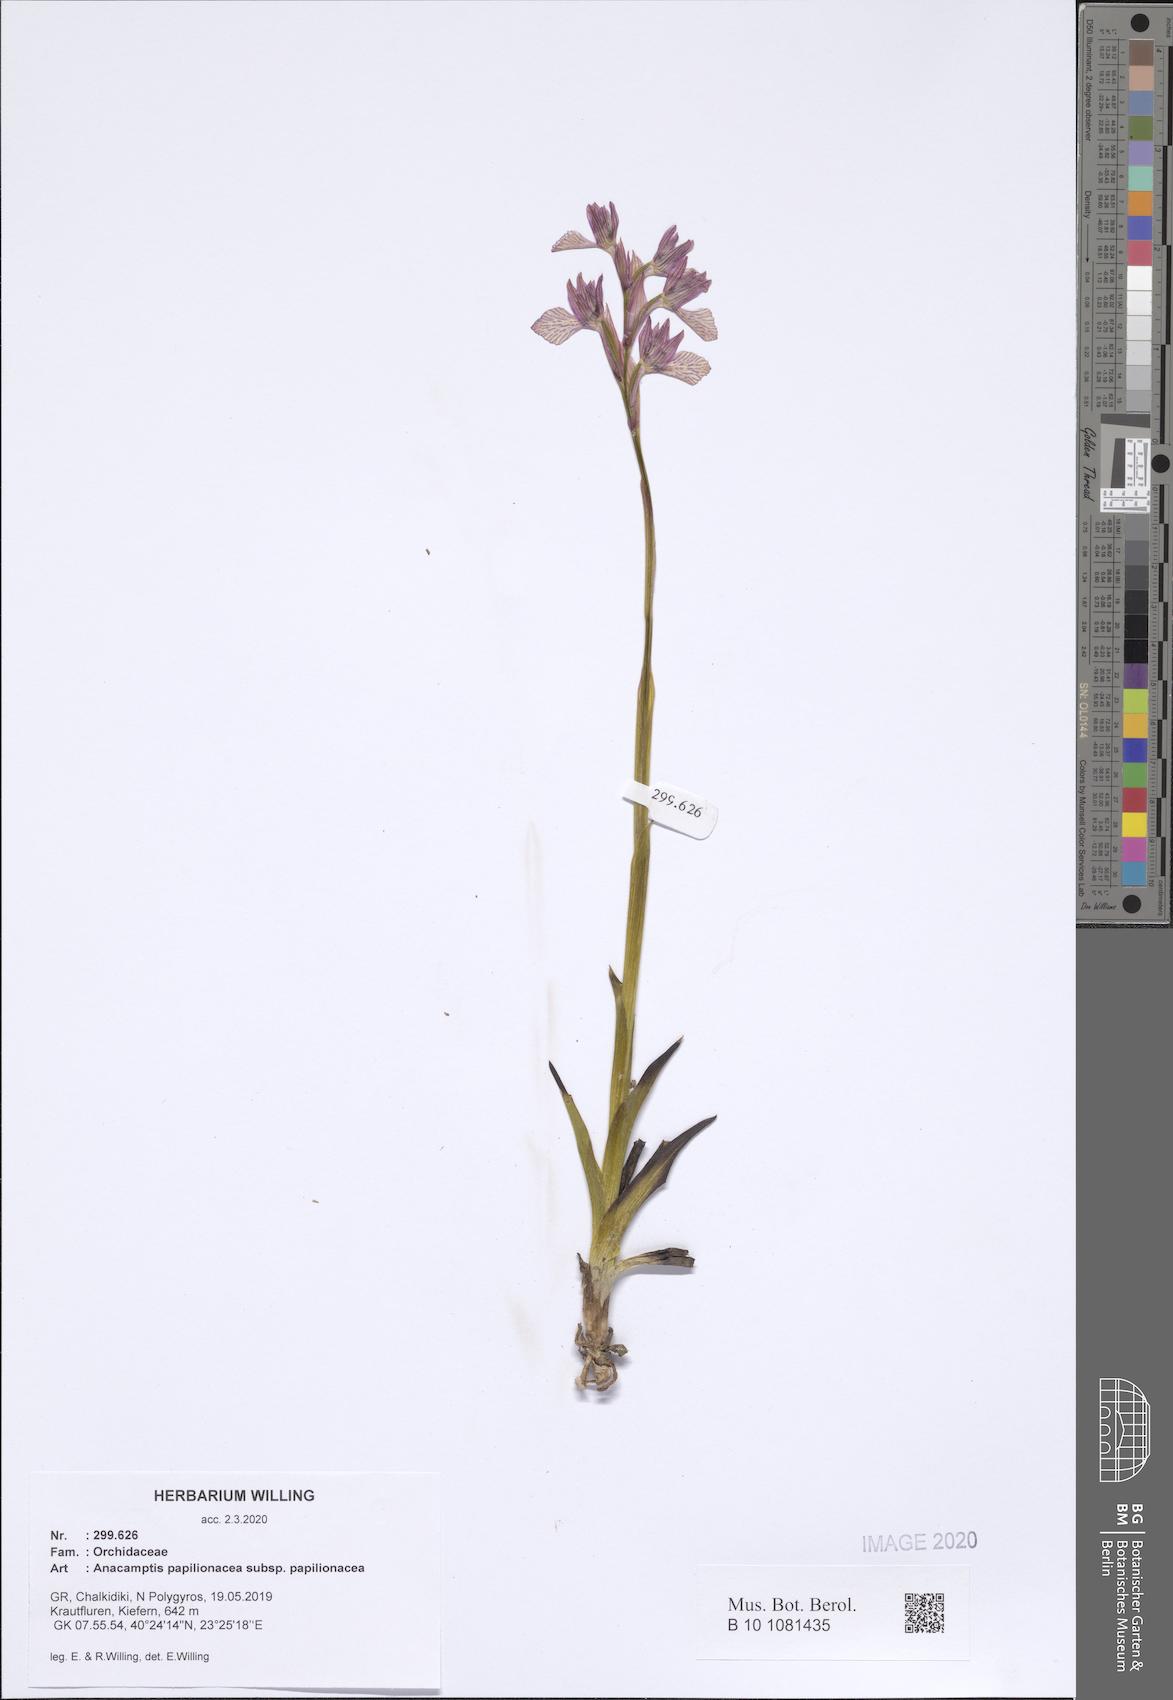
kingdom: Plantae
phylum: Tracheophyta
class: Liliopsida
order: Asparagales
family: Orchidaceae
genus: Anacamptis
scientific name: Anacamptis papilionacea
